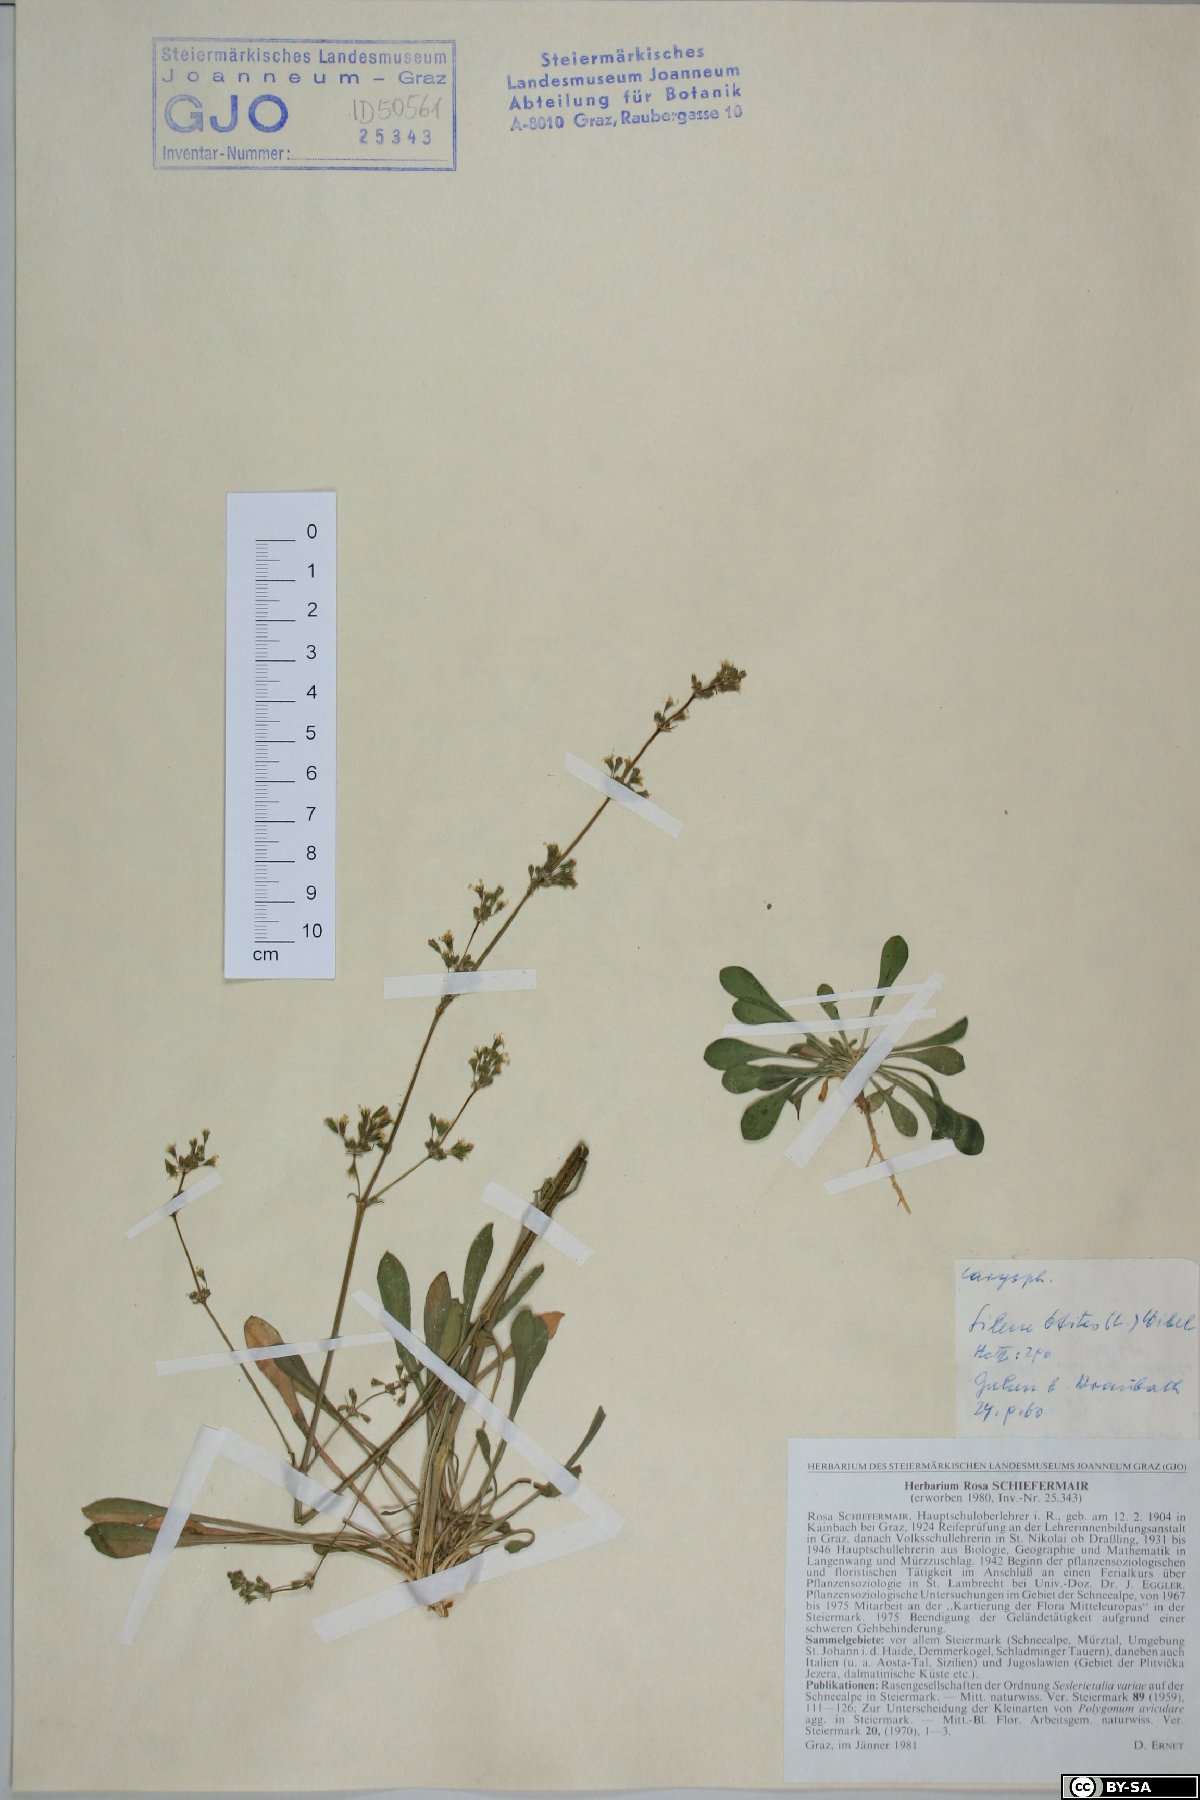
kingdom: Plantae
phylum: Tracheophyta
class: Magnoliopsida
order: Caryophyllales
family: Caryophyllaceae
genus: Silene
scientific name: Silene otites
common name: Spanish catchfly
